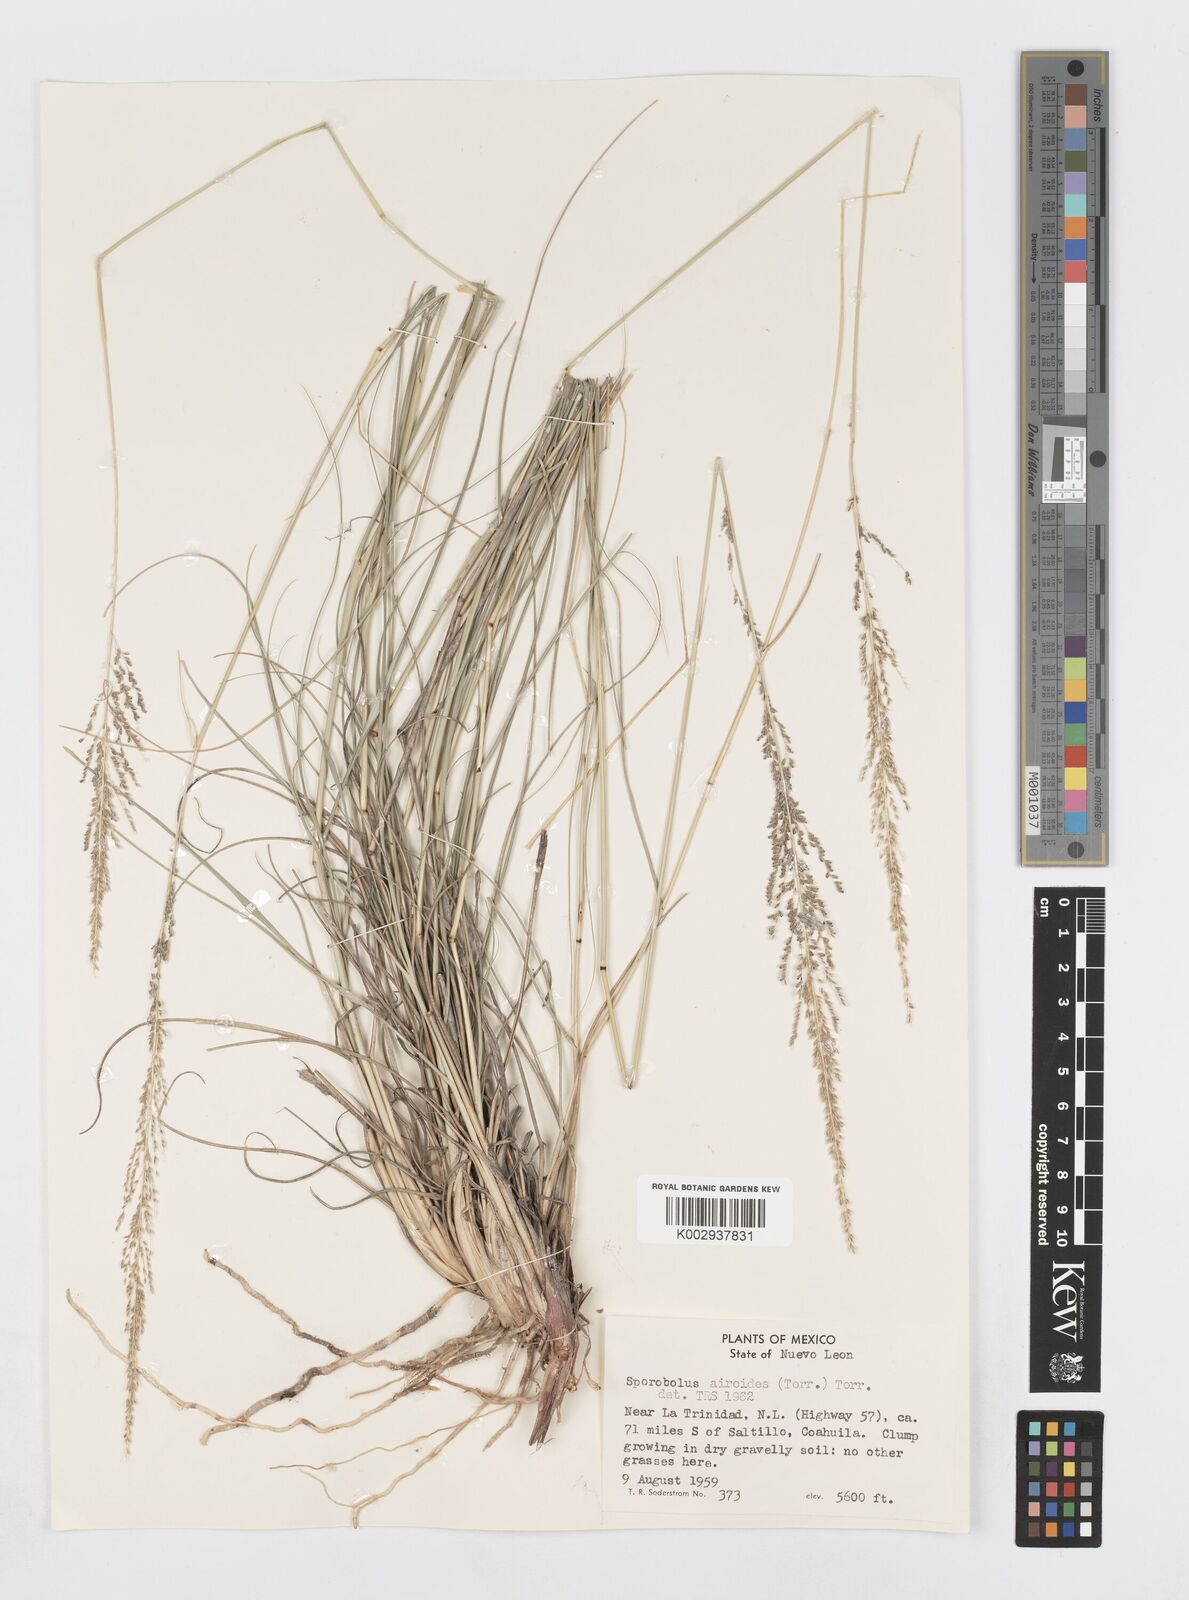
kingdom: Plantae
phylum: Tracheophyta
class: Liliopsida
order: Poales
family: Poaceae
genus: Sporobolus
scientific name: Sporobolus airoides
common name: Alkali sacaton
